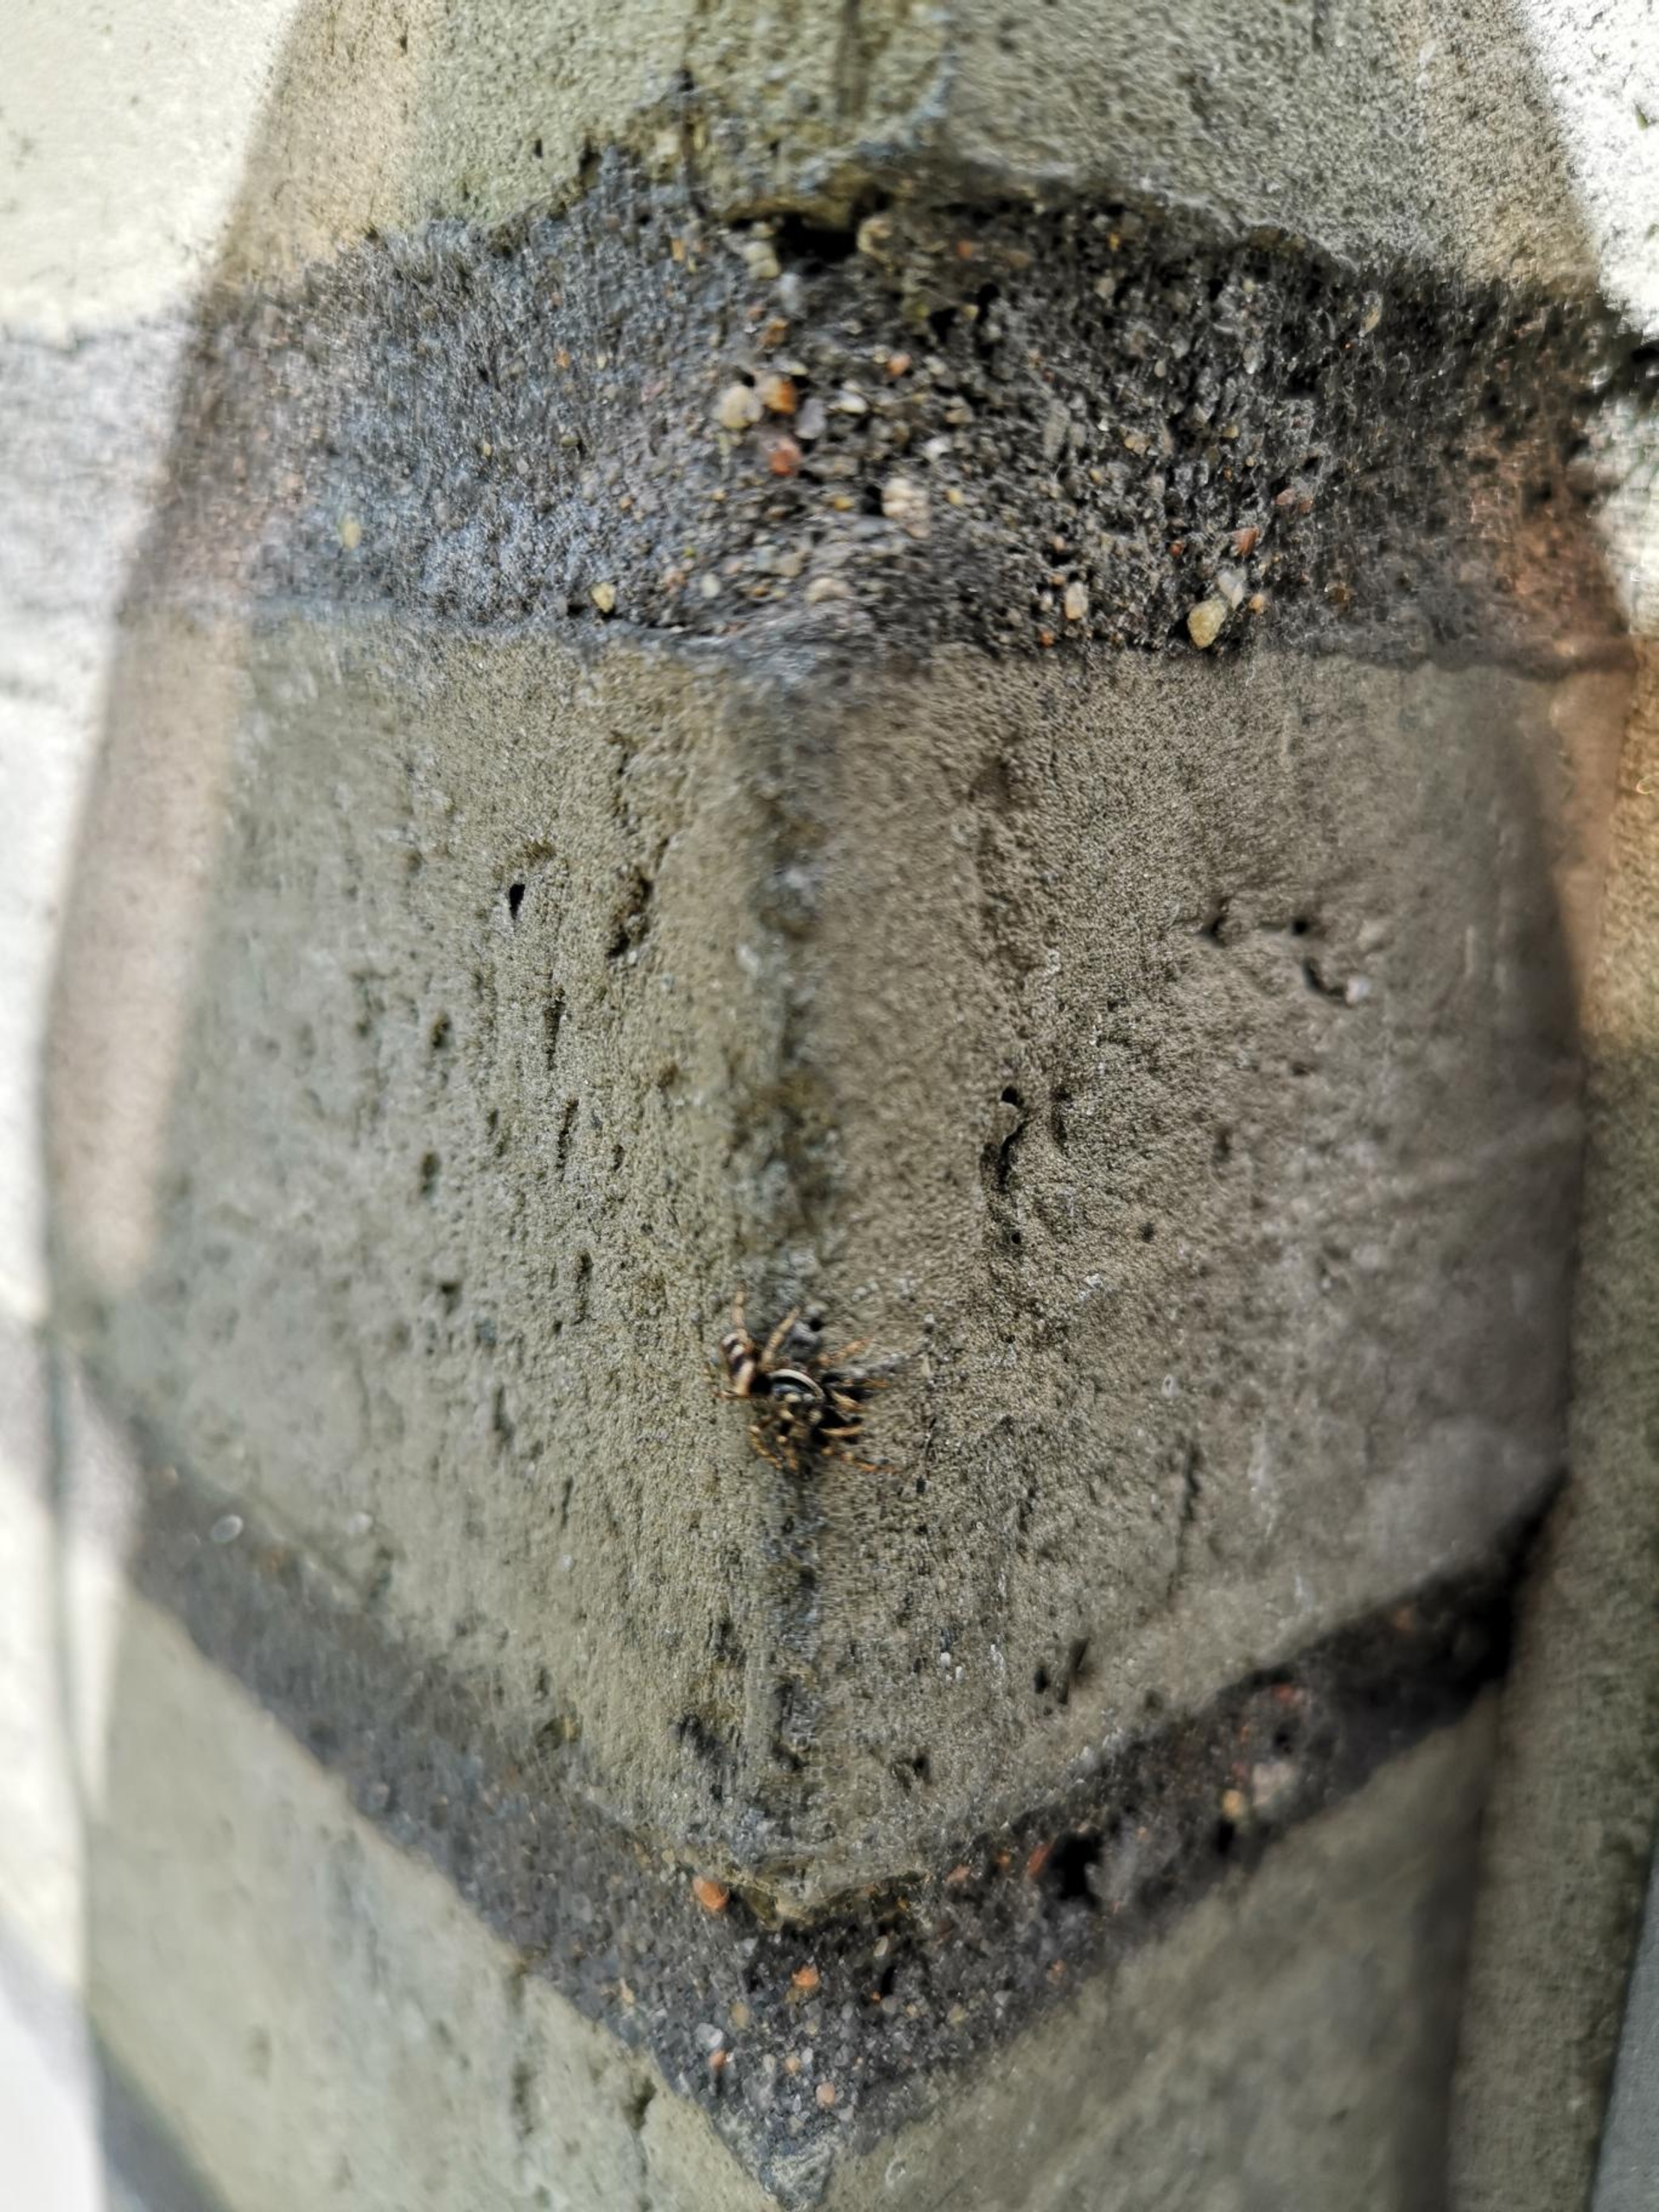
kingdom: Animalia
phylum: Arthropoda
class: Arachnida
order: Araneae
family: Salticidae
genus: Salticus
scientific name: Salticus scenicus
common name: Almindelig zebraedderkop
